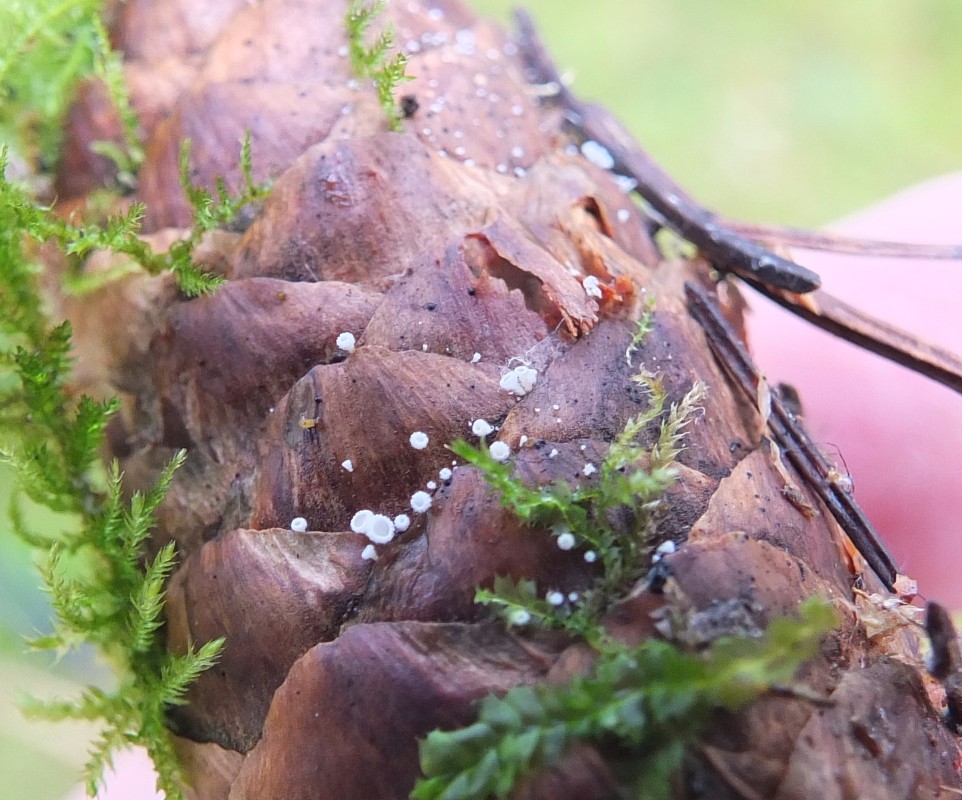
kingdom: Fungi
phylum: Ascomycota
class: Leotiomycetes
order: Helotiales
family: Lachnaceae
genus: Lachnum
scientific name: Lachnum virgineum
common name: jomfru-frynseskive
